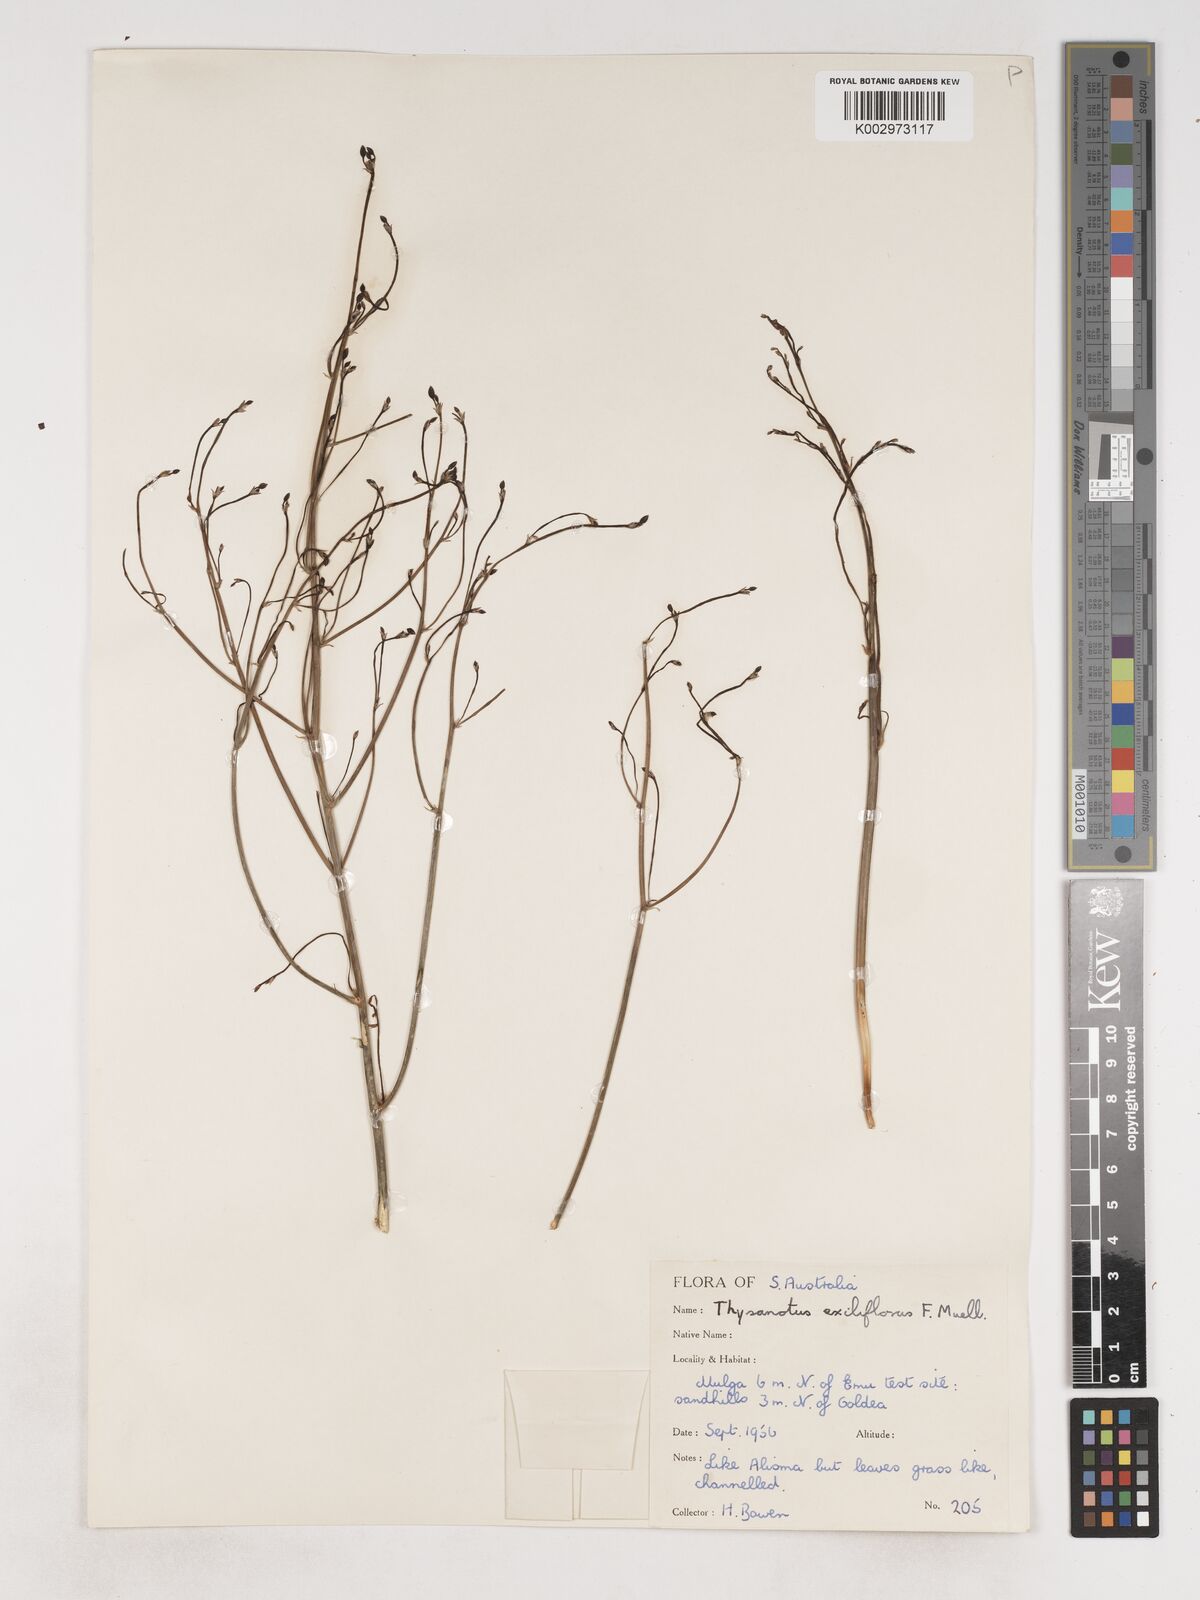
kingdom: Plantae
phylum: Tracheophyta
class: Liliopsida
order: Asparagales
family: Asparagaceae
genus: Thysanotus
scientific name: Thysanotus exiliflorus
